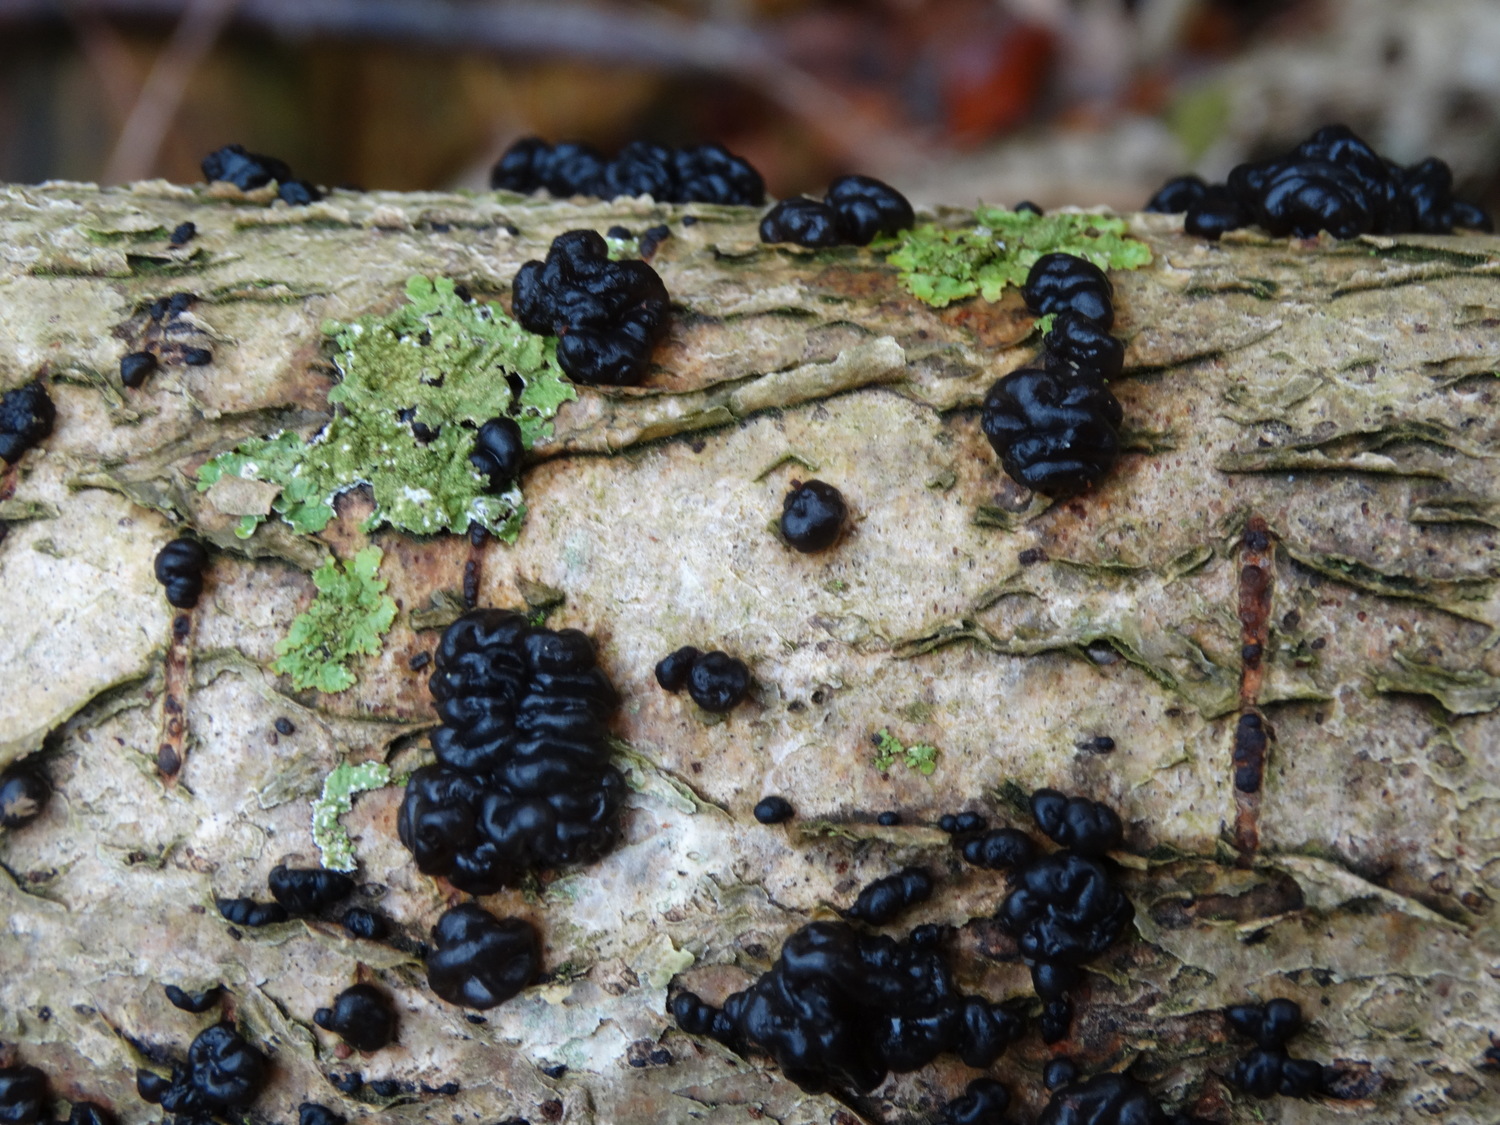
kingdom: Fungi
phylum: Basidiomycota
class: Agaricomycetes
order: Auriculariales
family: Auriculariaceae
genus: Exidia
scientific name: Exidia nigricans
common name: almindelig bævretop
